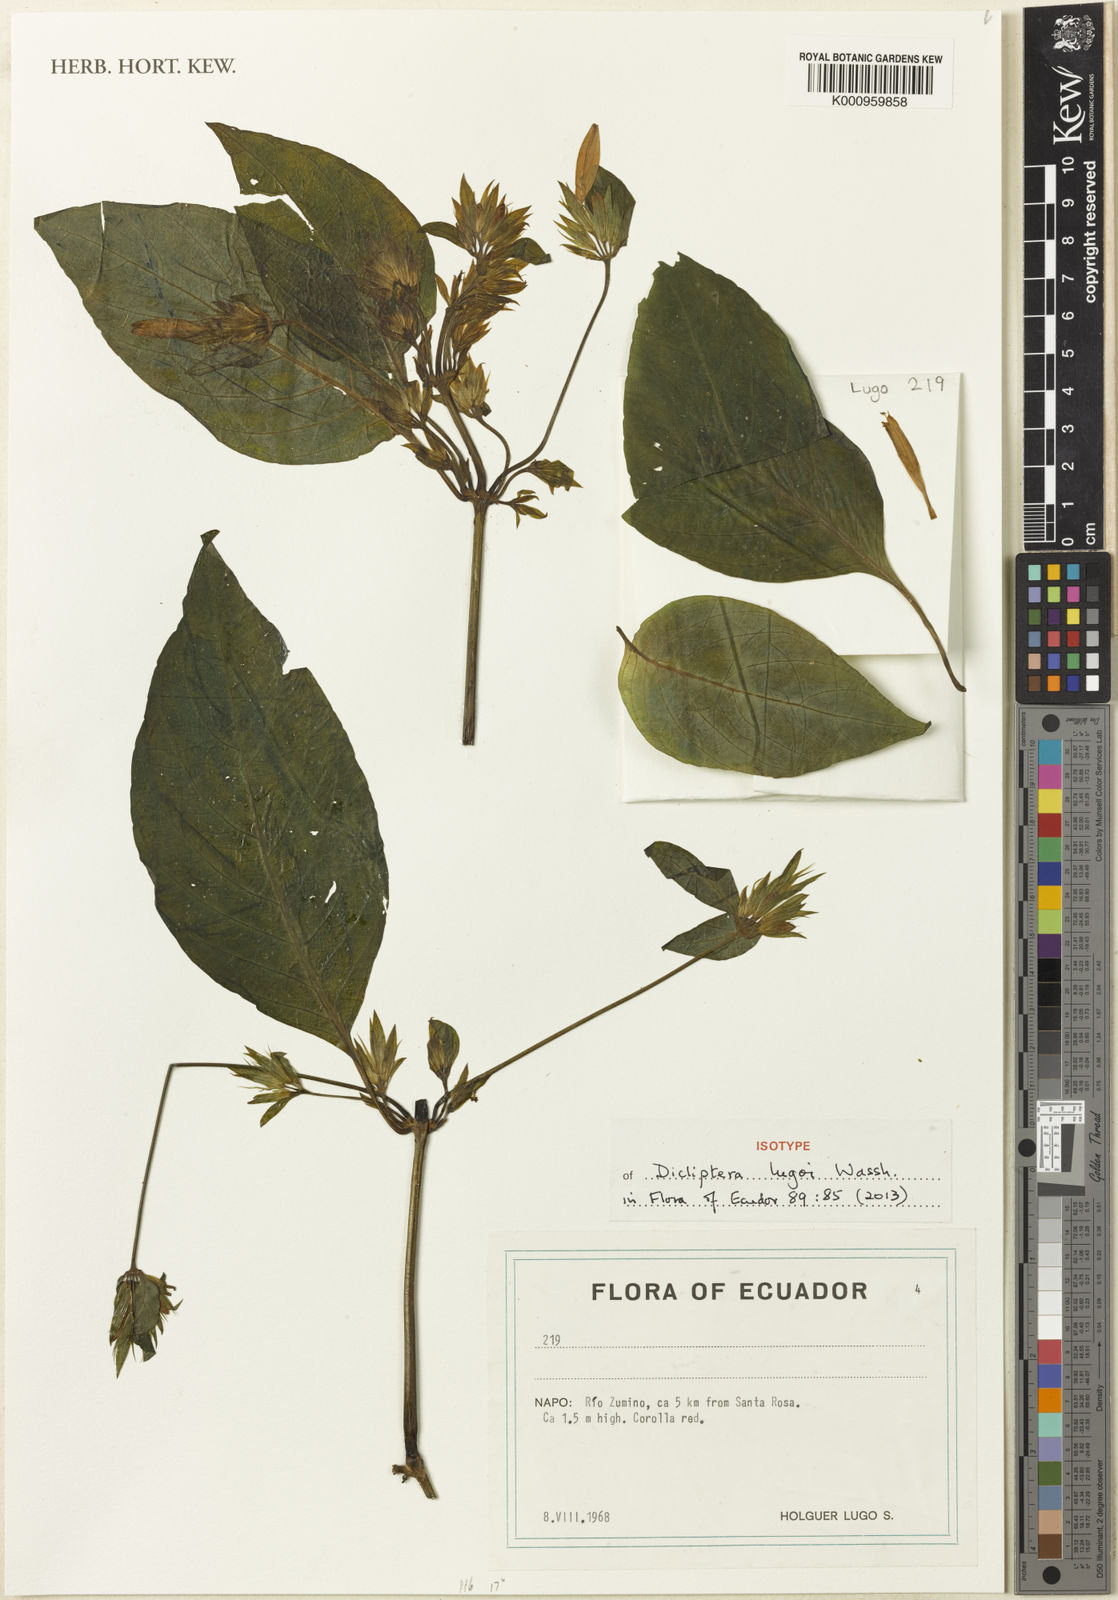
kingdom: Plantae
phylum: Tracheophyta
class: Magnoliopsida
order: Lamiales
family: Acanthaceae
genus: Dicliptera
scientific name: Dicliptera lugoi
